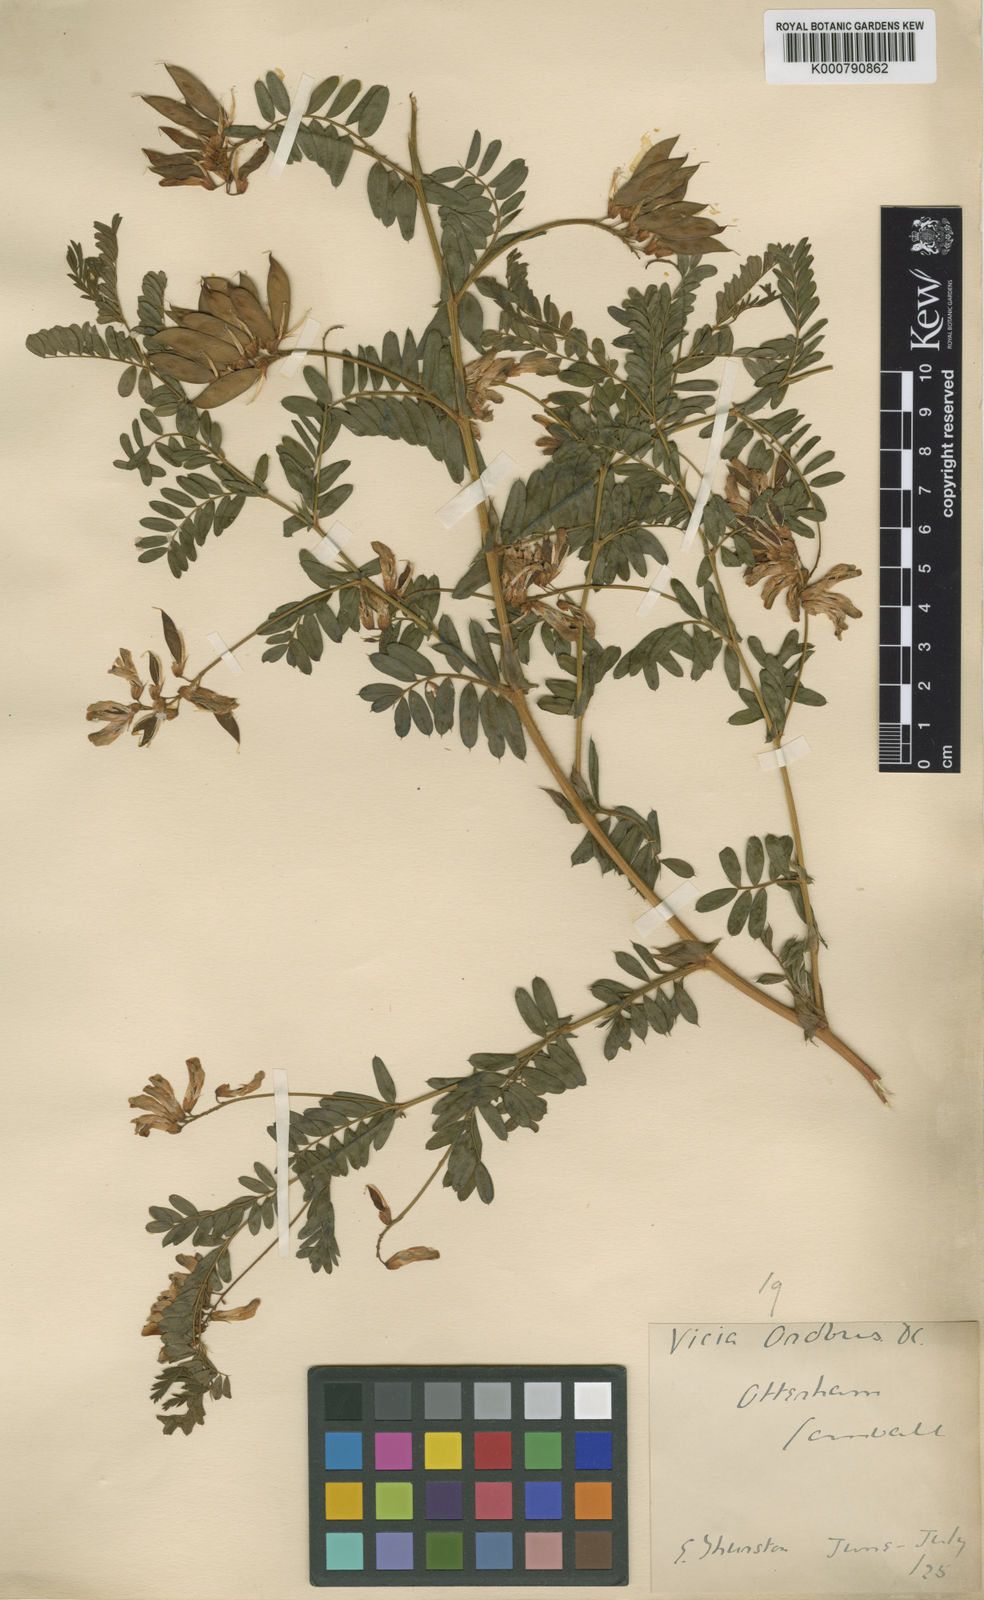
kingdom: Plantae
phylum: Tracheophyta
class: Magnoliopsida
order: Fabales
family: Fabaceae
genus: Vicia
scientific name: Vicia orobus
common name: Wood bitter-vetch
